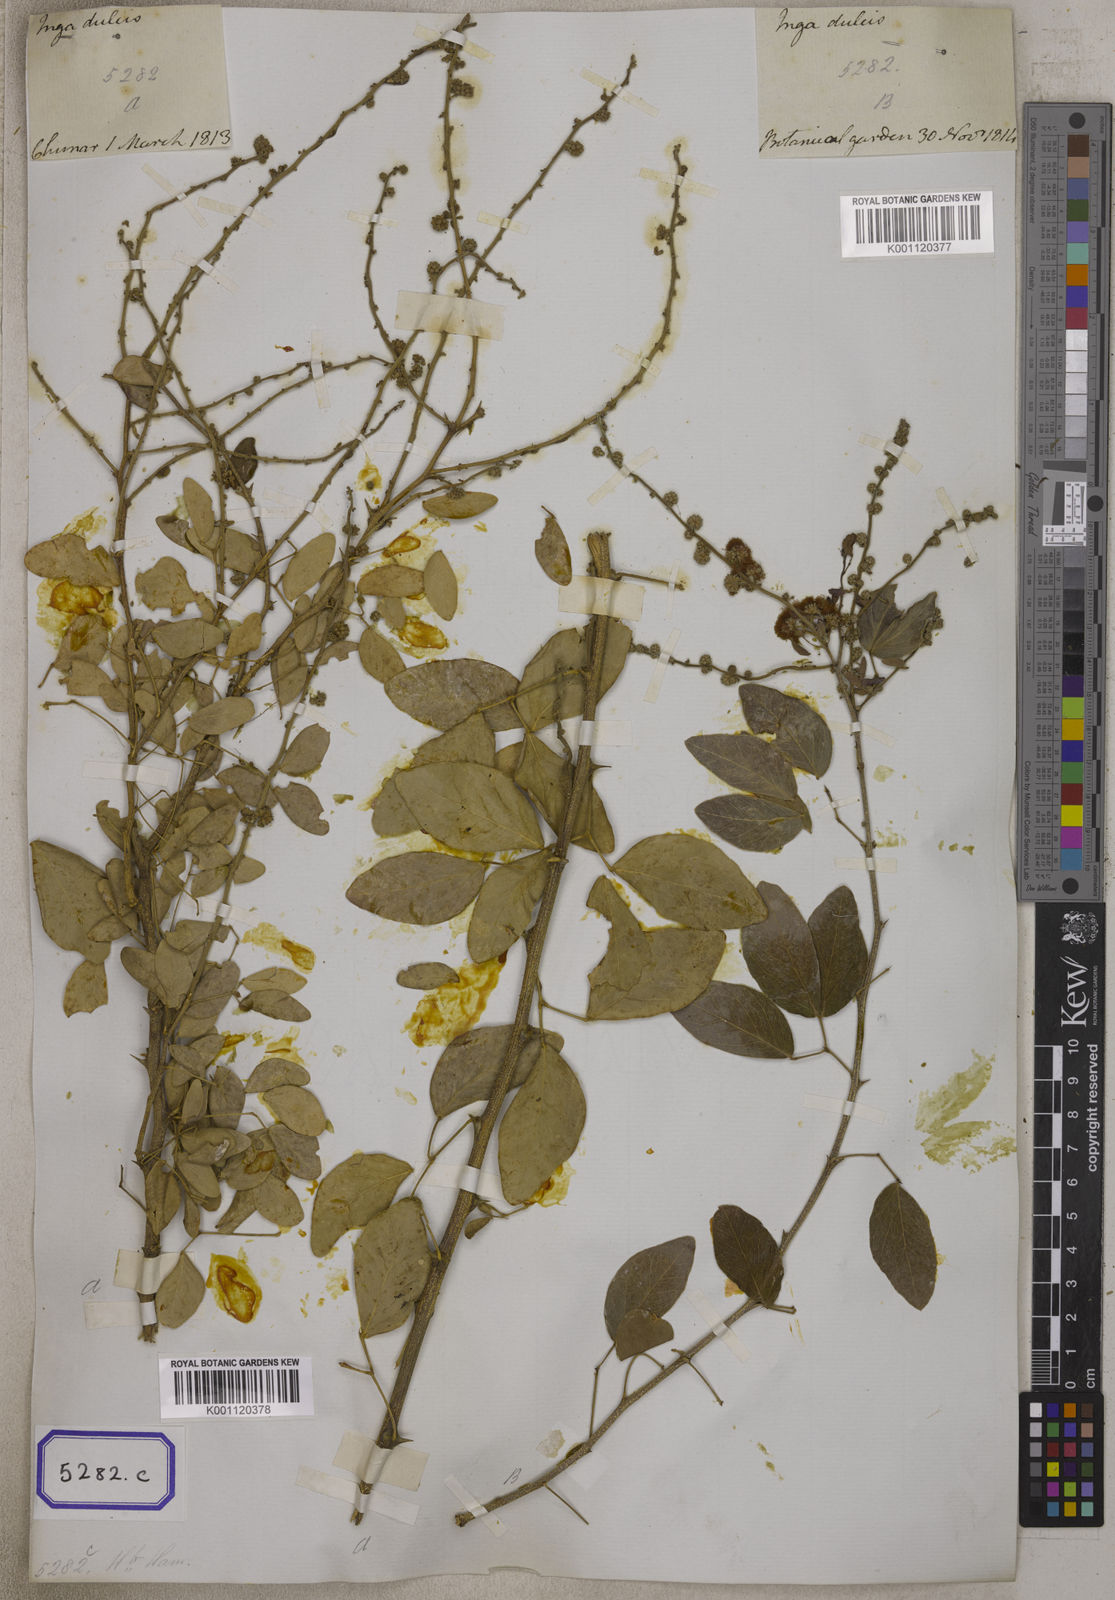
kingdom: Plantae
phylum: Tracheophyta
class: Magnoliopsida
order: Fabales
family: Fabaceae
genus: Pithecellobium
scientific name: Pithecellobium dulce
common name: Monkeypod
